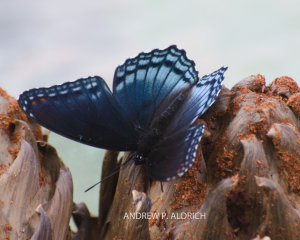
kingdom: Animalia
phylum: Arthropoda
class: Insecta
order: Lepidoptera
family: Nymphalidae
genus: Limenitis
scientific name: Limenitis astyanax
